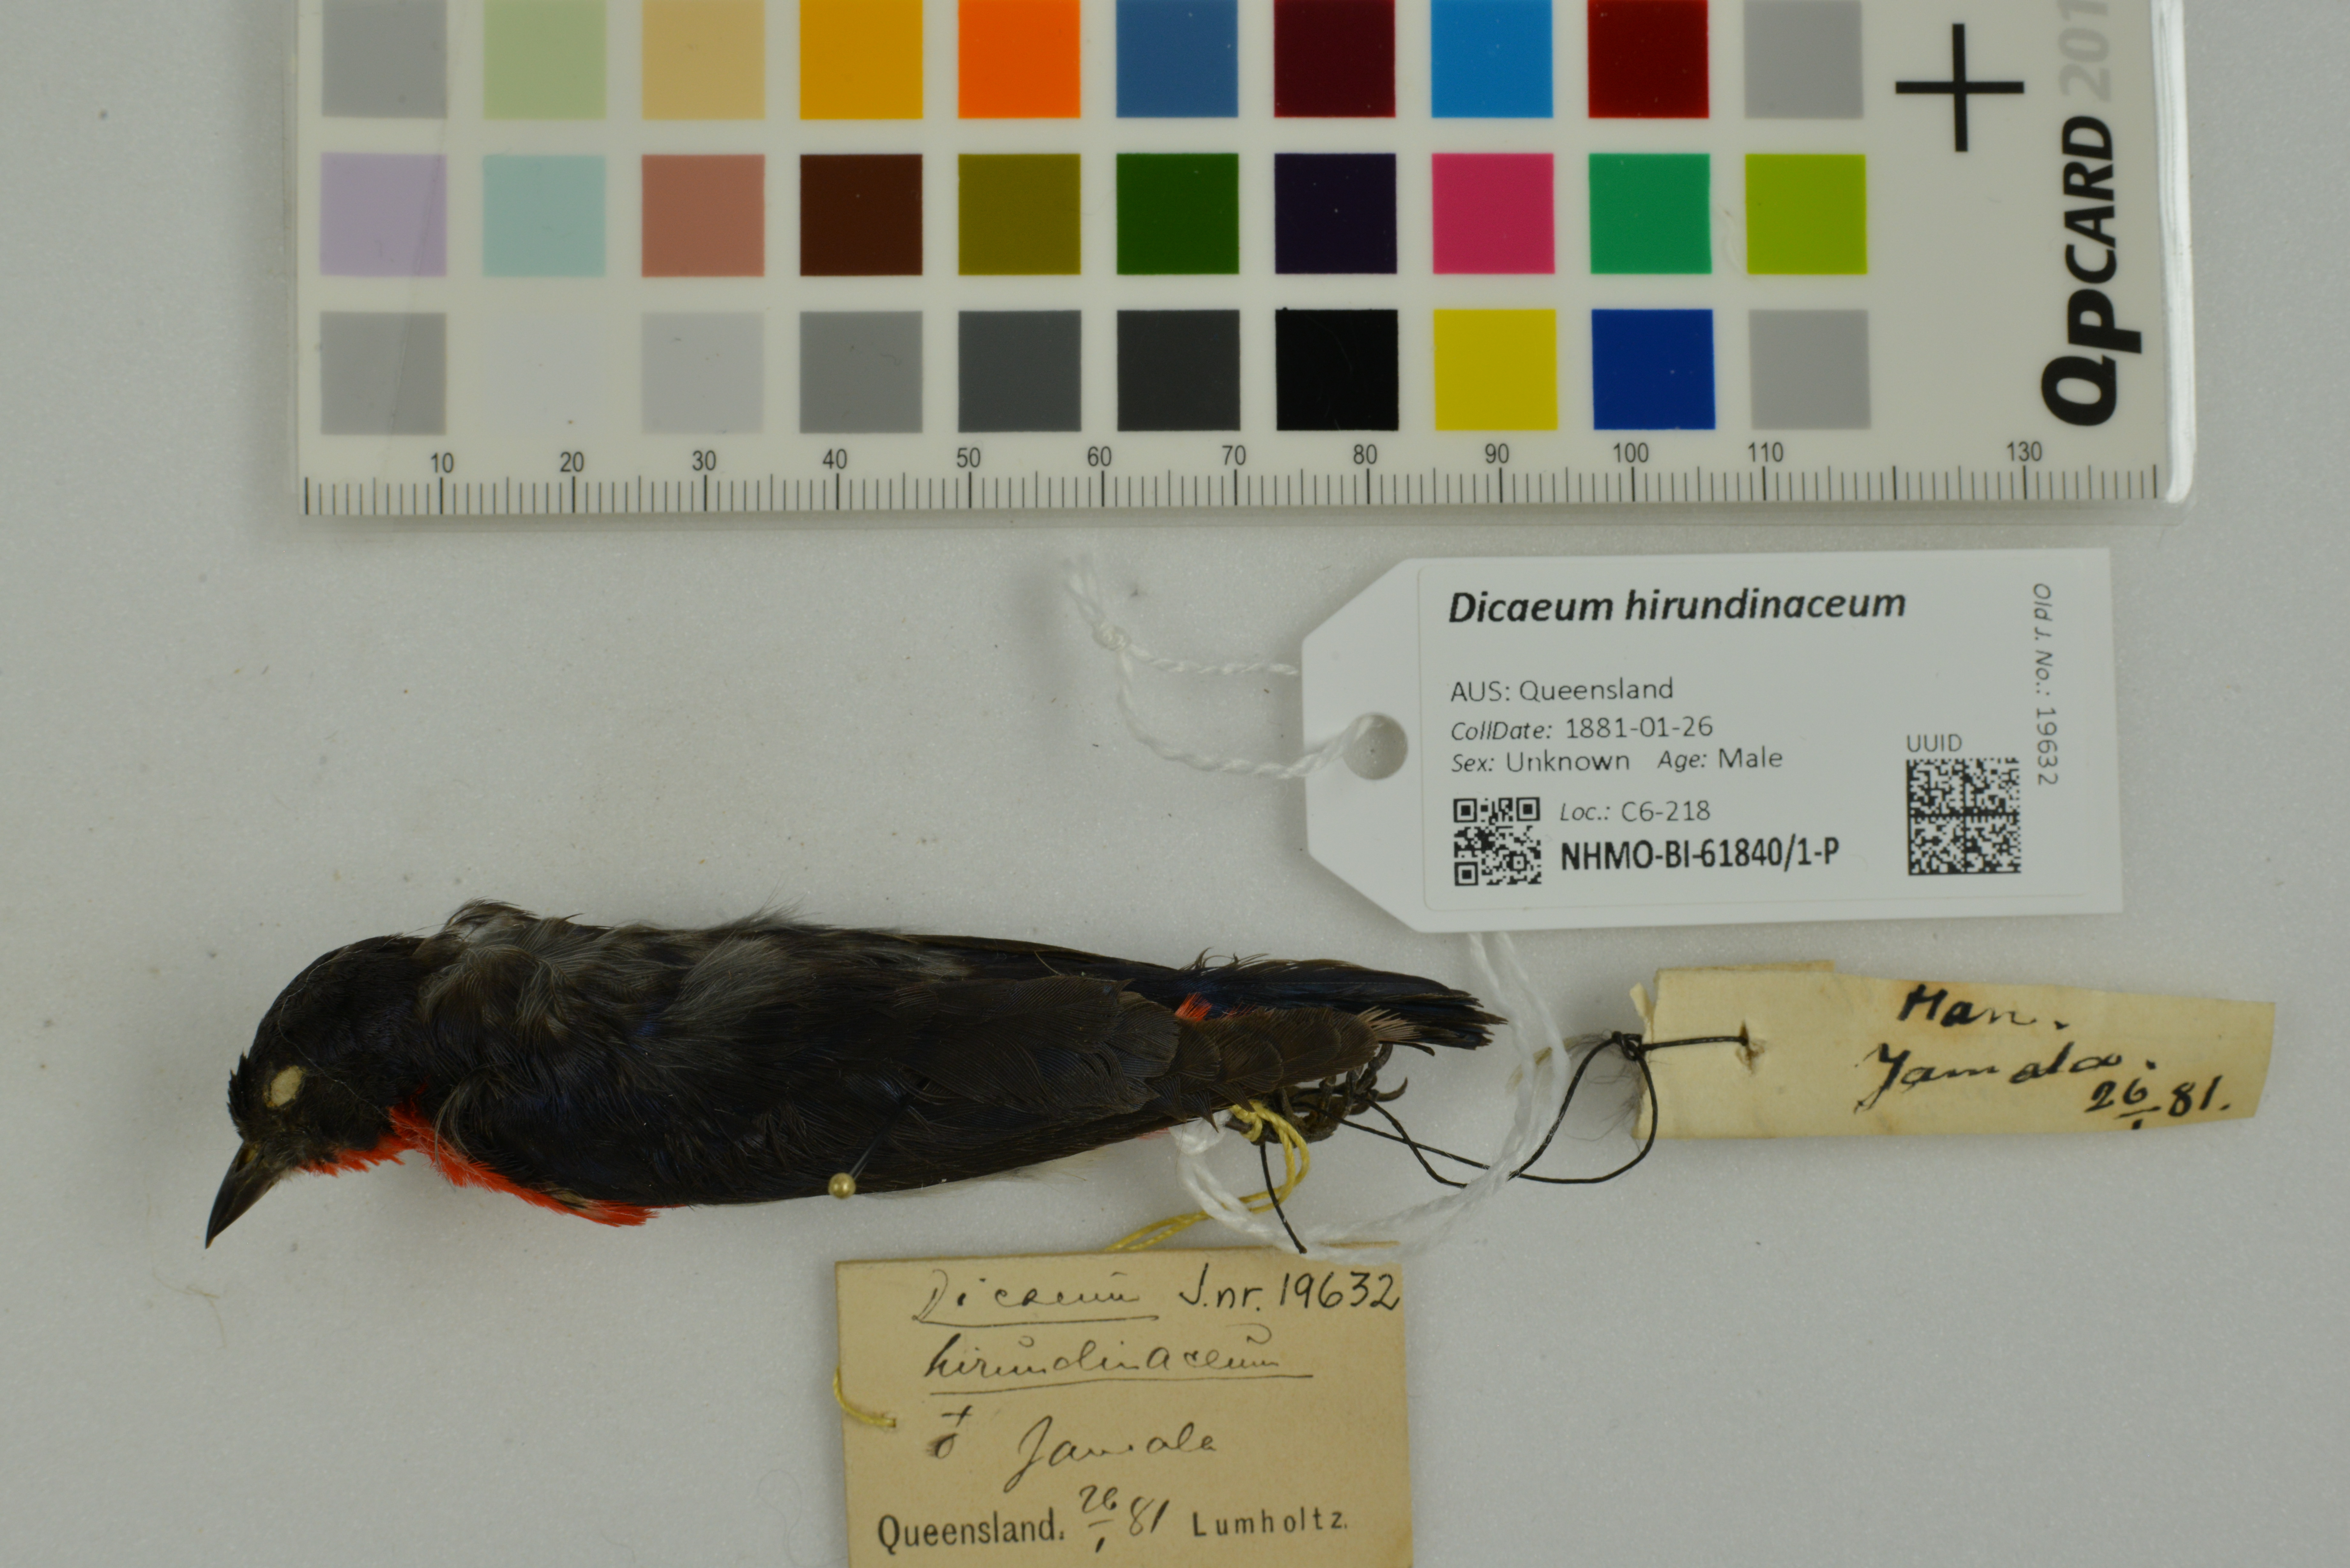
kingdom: Animalia
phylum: Chordata
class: Aves
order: Passeriformes
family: Dicaeidae
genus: Dicaeum
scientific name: Dicaeum hirundinaceum
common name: Mistletoebird
